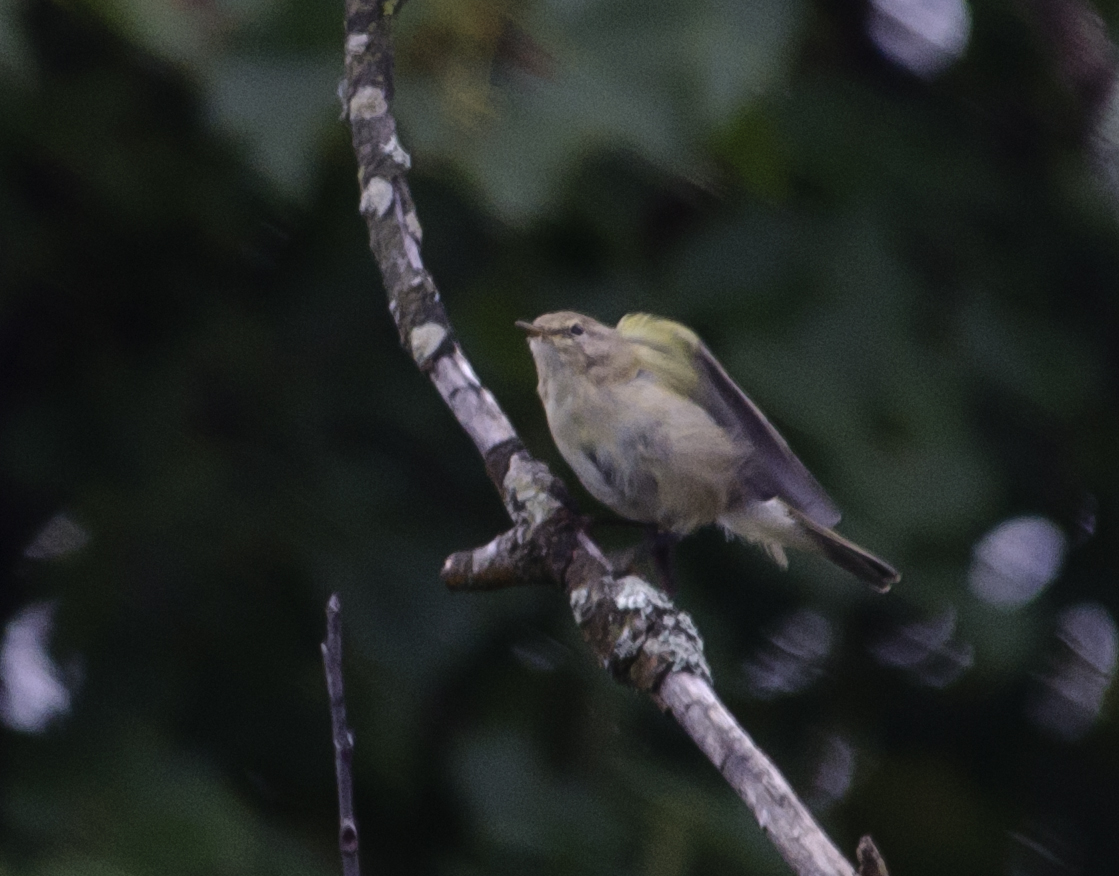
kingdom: Animalia
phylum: Chordata
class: Aves
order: Passeriformes
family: Phylloscopidae
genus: Phylloscopus
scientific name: Phylloscopus collybita
